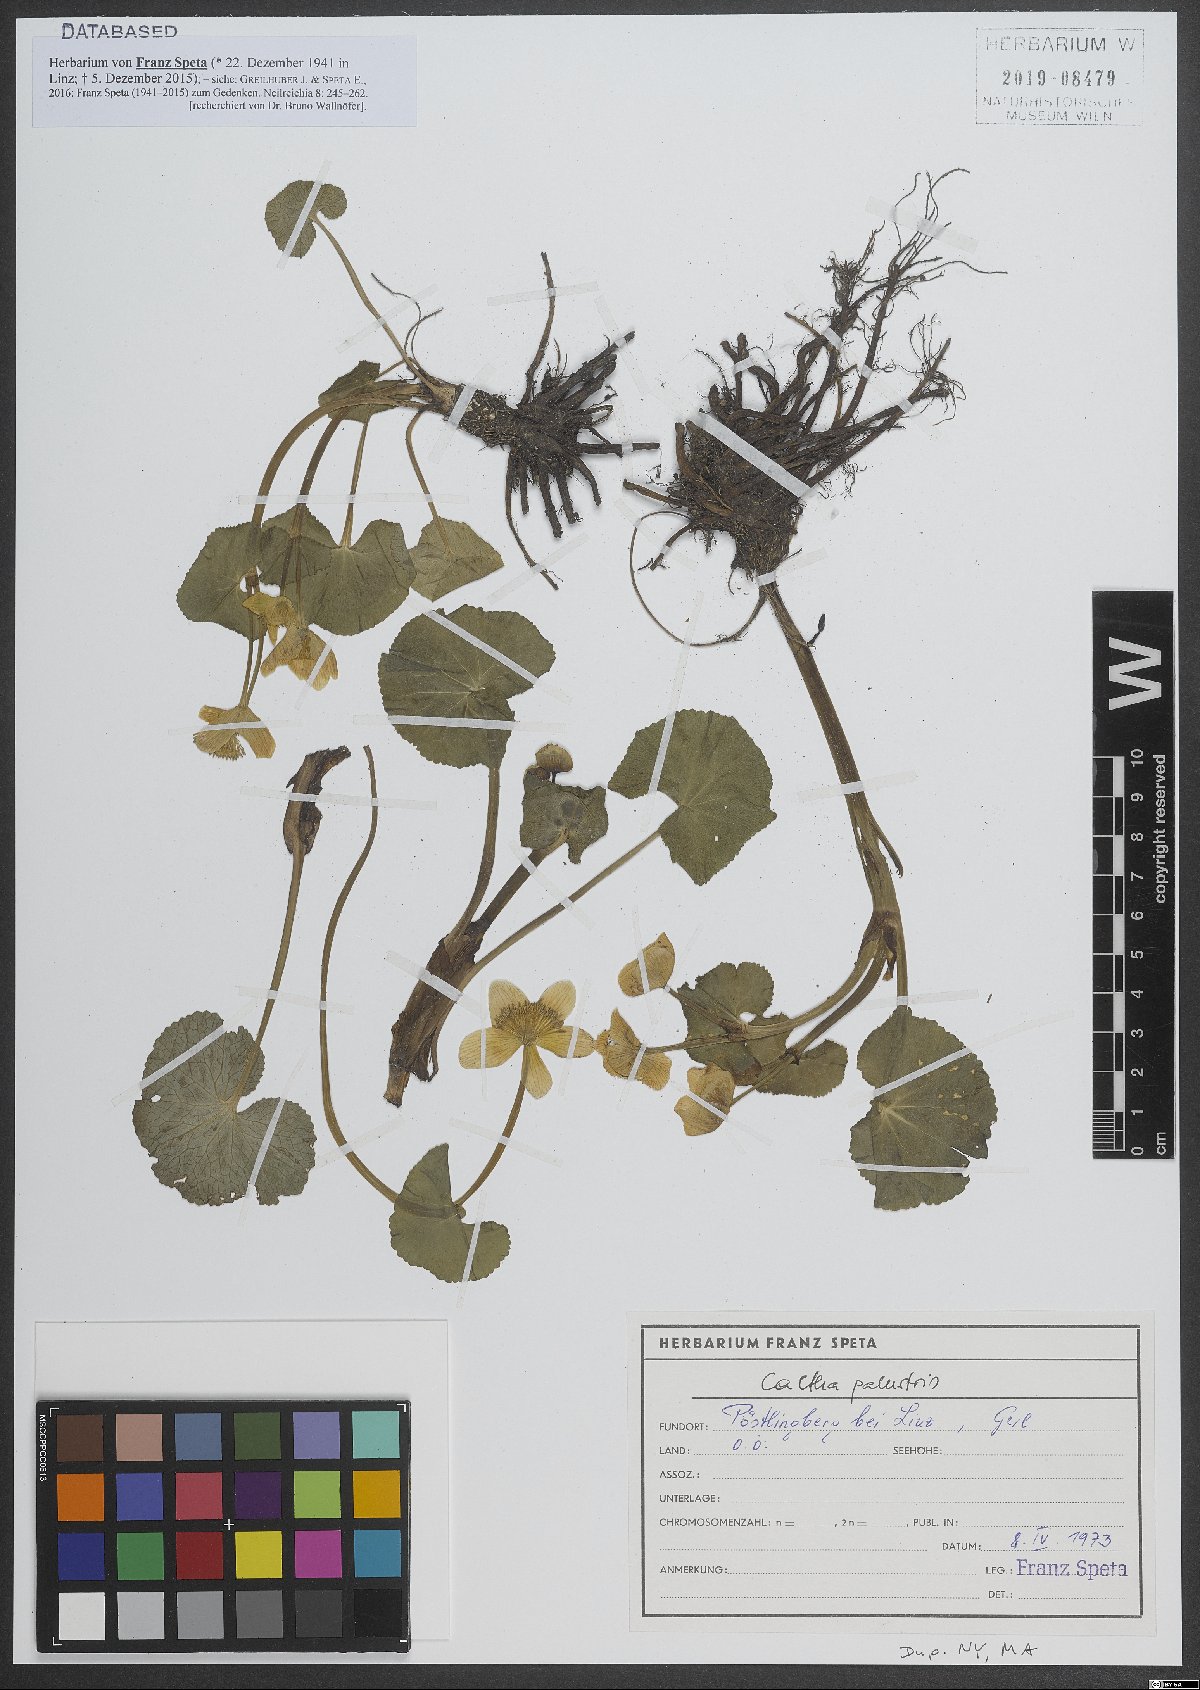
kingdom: Plantae
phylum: Tracheophyta
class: Magnoliopsida
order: Ranunculales
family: Ranunculaceae
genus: Caltha
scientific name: Caltha palustris
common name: Marsh marigold
